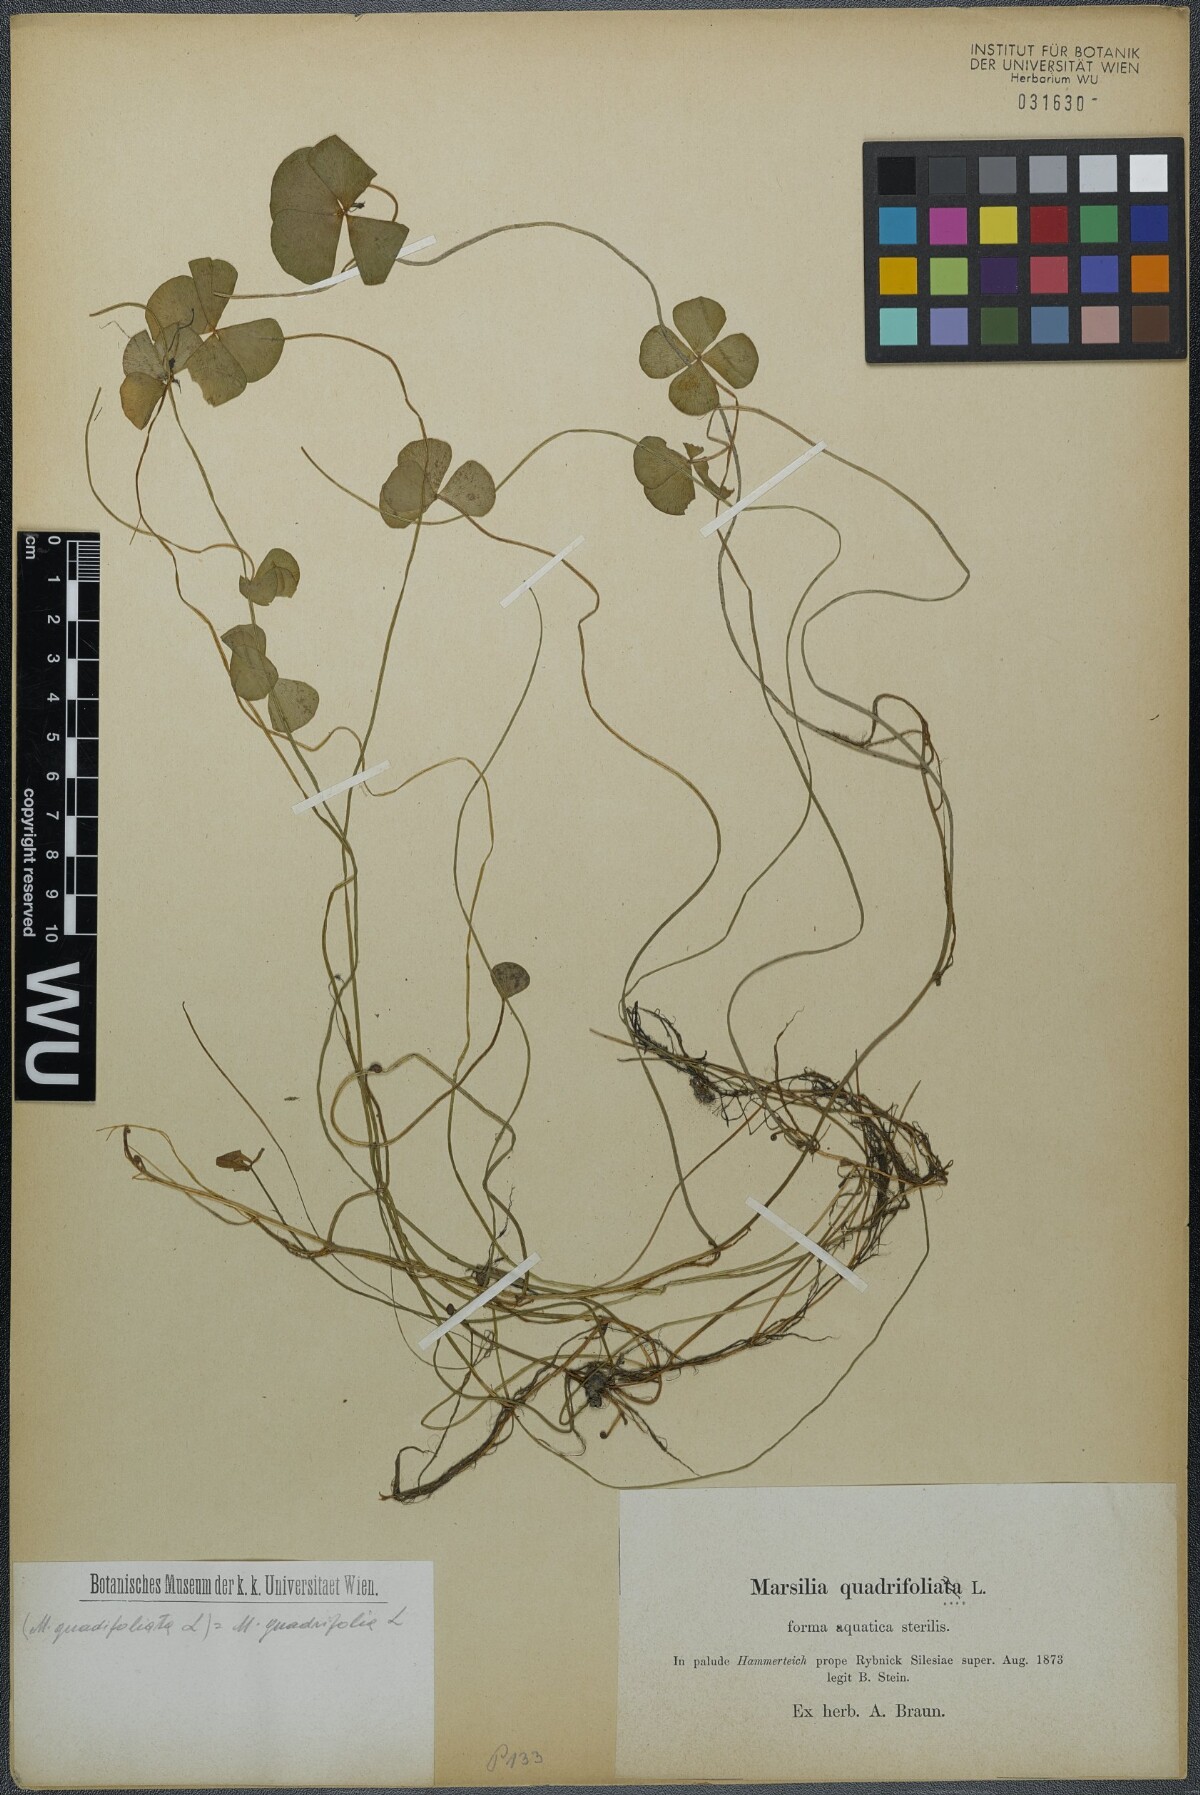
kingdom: Plantae
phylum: Tracheophyta
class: Polypodiopsida
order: Salviniales
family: Marsileaceae
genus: Marsilea
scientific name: Marsilea quadrifolia
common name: Water shamrock
